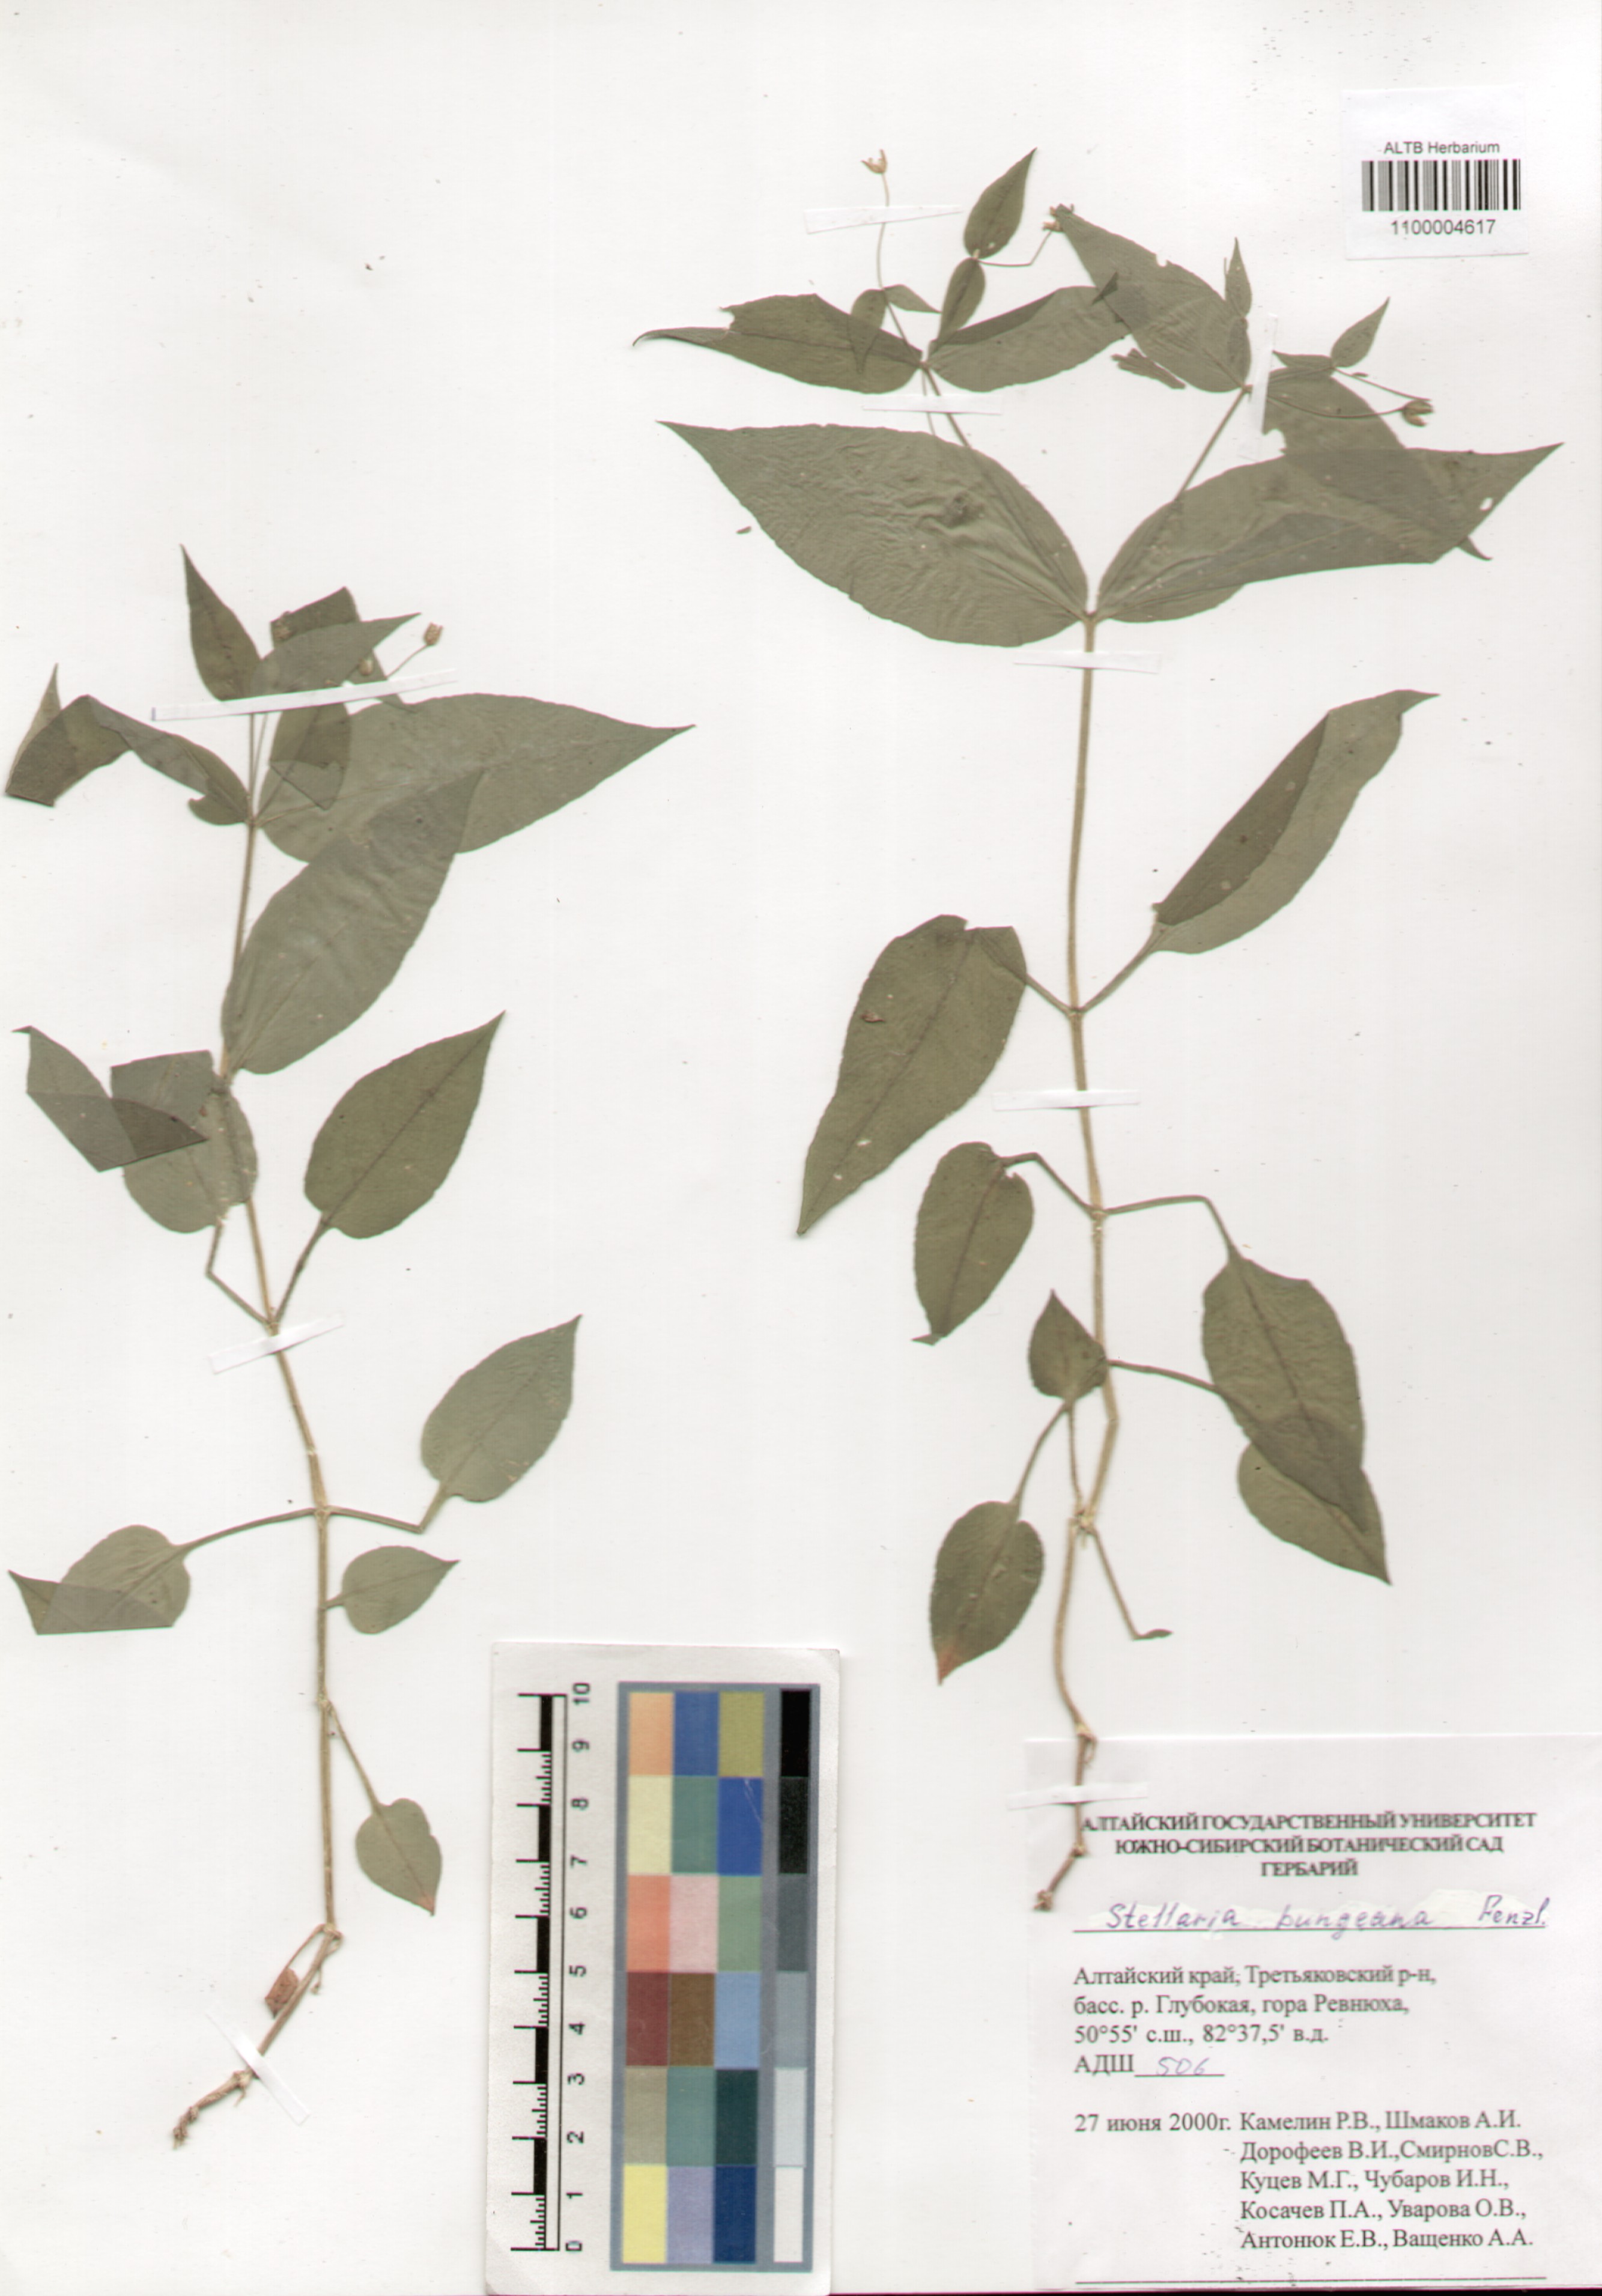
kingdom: Plantae
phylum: Tracheophyta
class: Magnoliopsida
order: Caryophyllales
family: Caryophyllaceae
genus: Stellaria
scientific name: Stellaria bungeana
